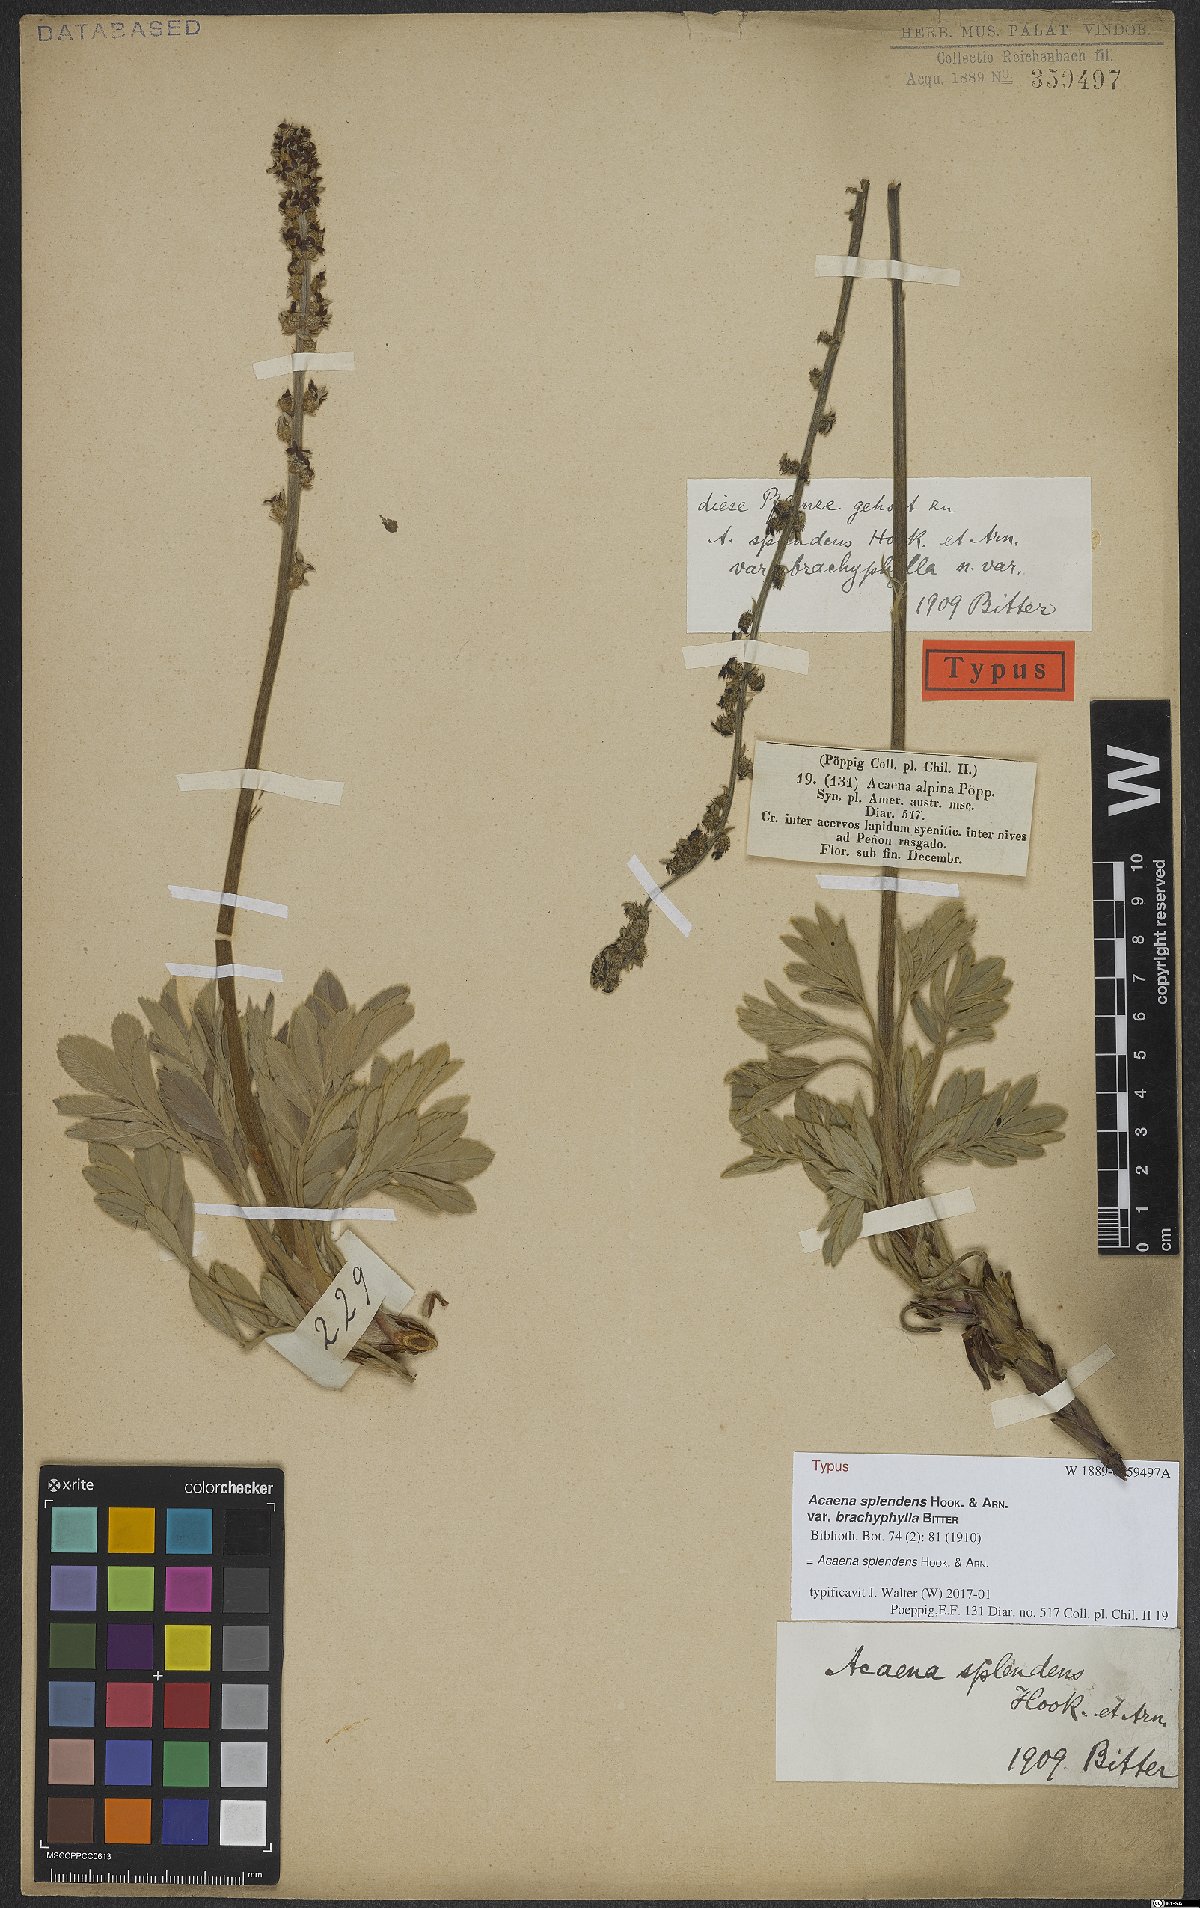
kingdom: Plantae
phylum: Tracheophyta
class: Magnoliopsida
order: Rosales
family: Rosaceae
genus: Acaena
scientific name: Acaena splendens
